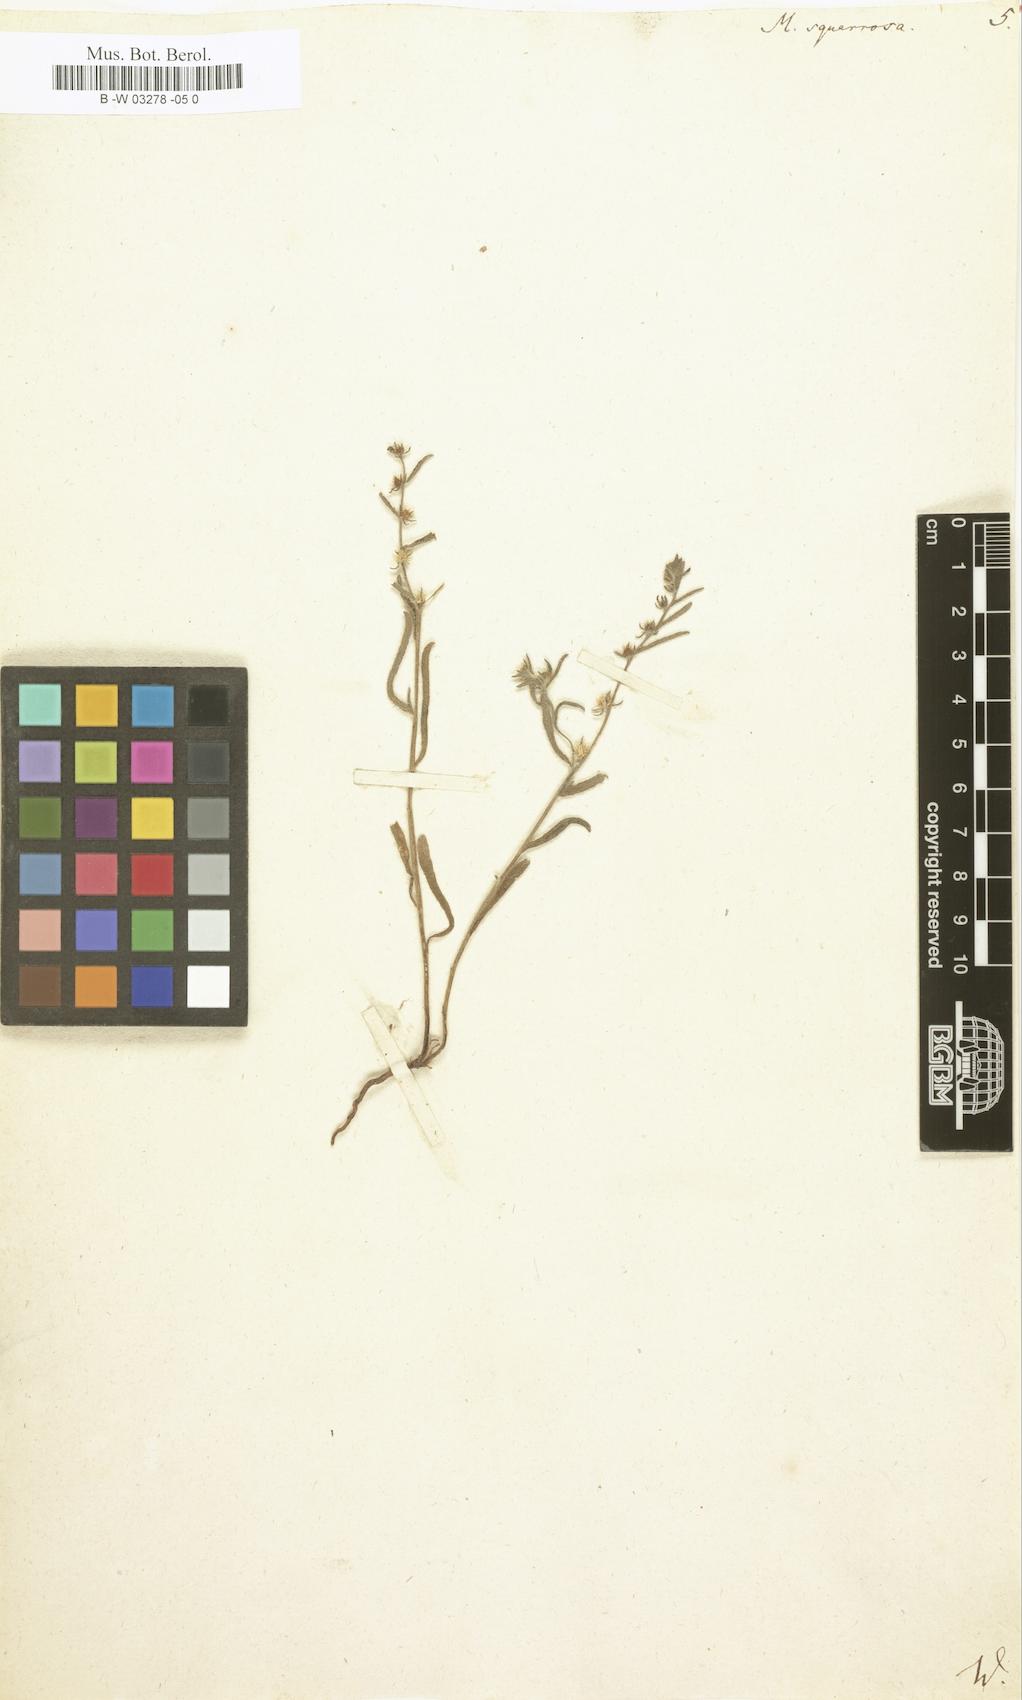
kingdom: Plantae
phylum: Tracheophyta
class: Magnoliopsida
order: Boraginales
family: Boraginaceae
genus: Lappula
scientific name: Lappula squarrosa
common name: European stickseed
